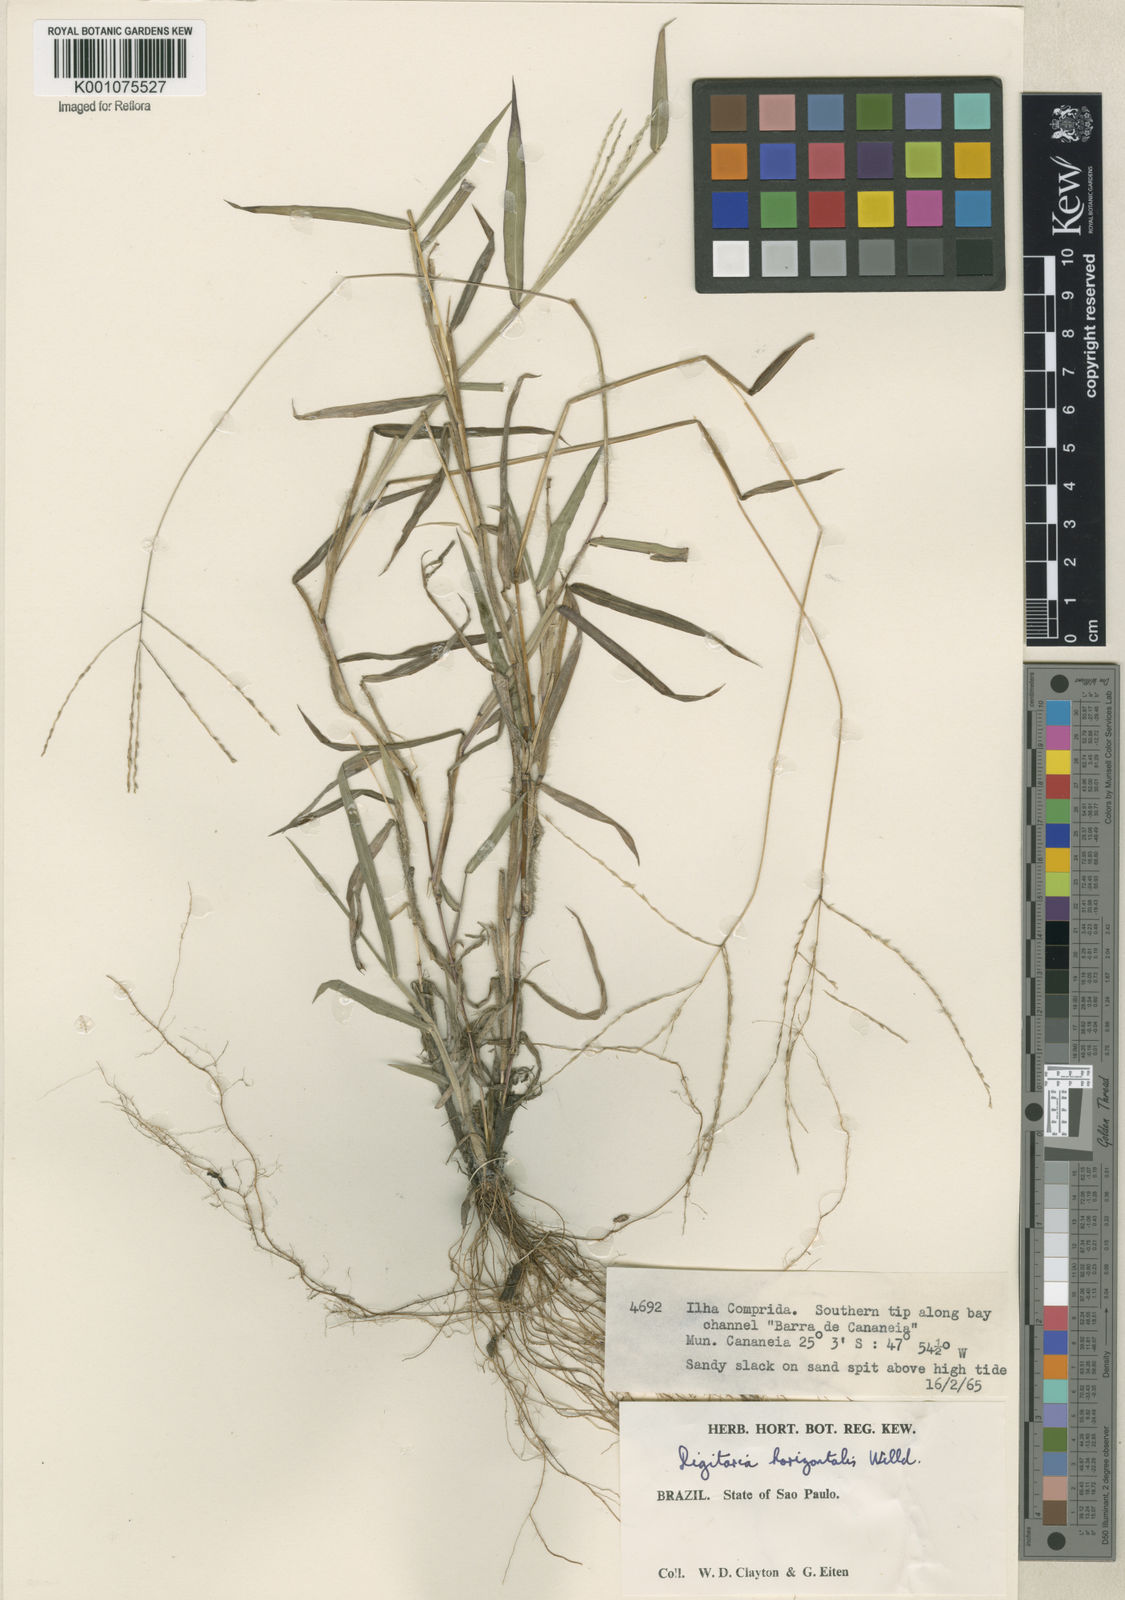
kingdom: Plantae
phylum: Tracheophyta
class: Liliopsida
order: Poales
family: Poaceae
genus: Digitaria
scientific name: Digitaria horizontalis
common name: Jamaican crabgrass
